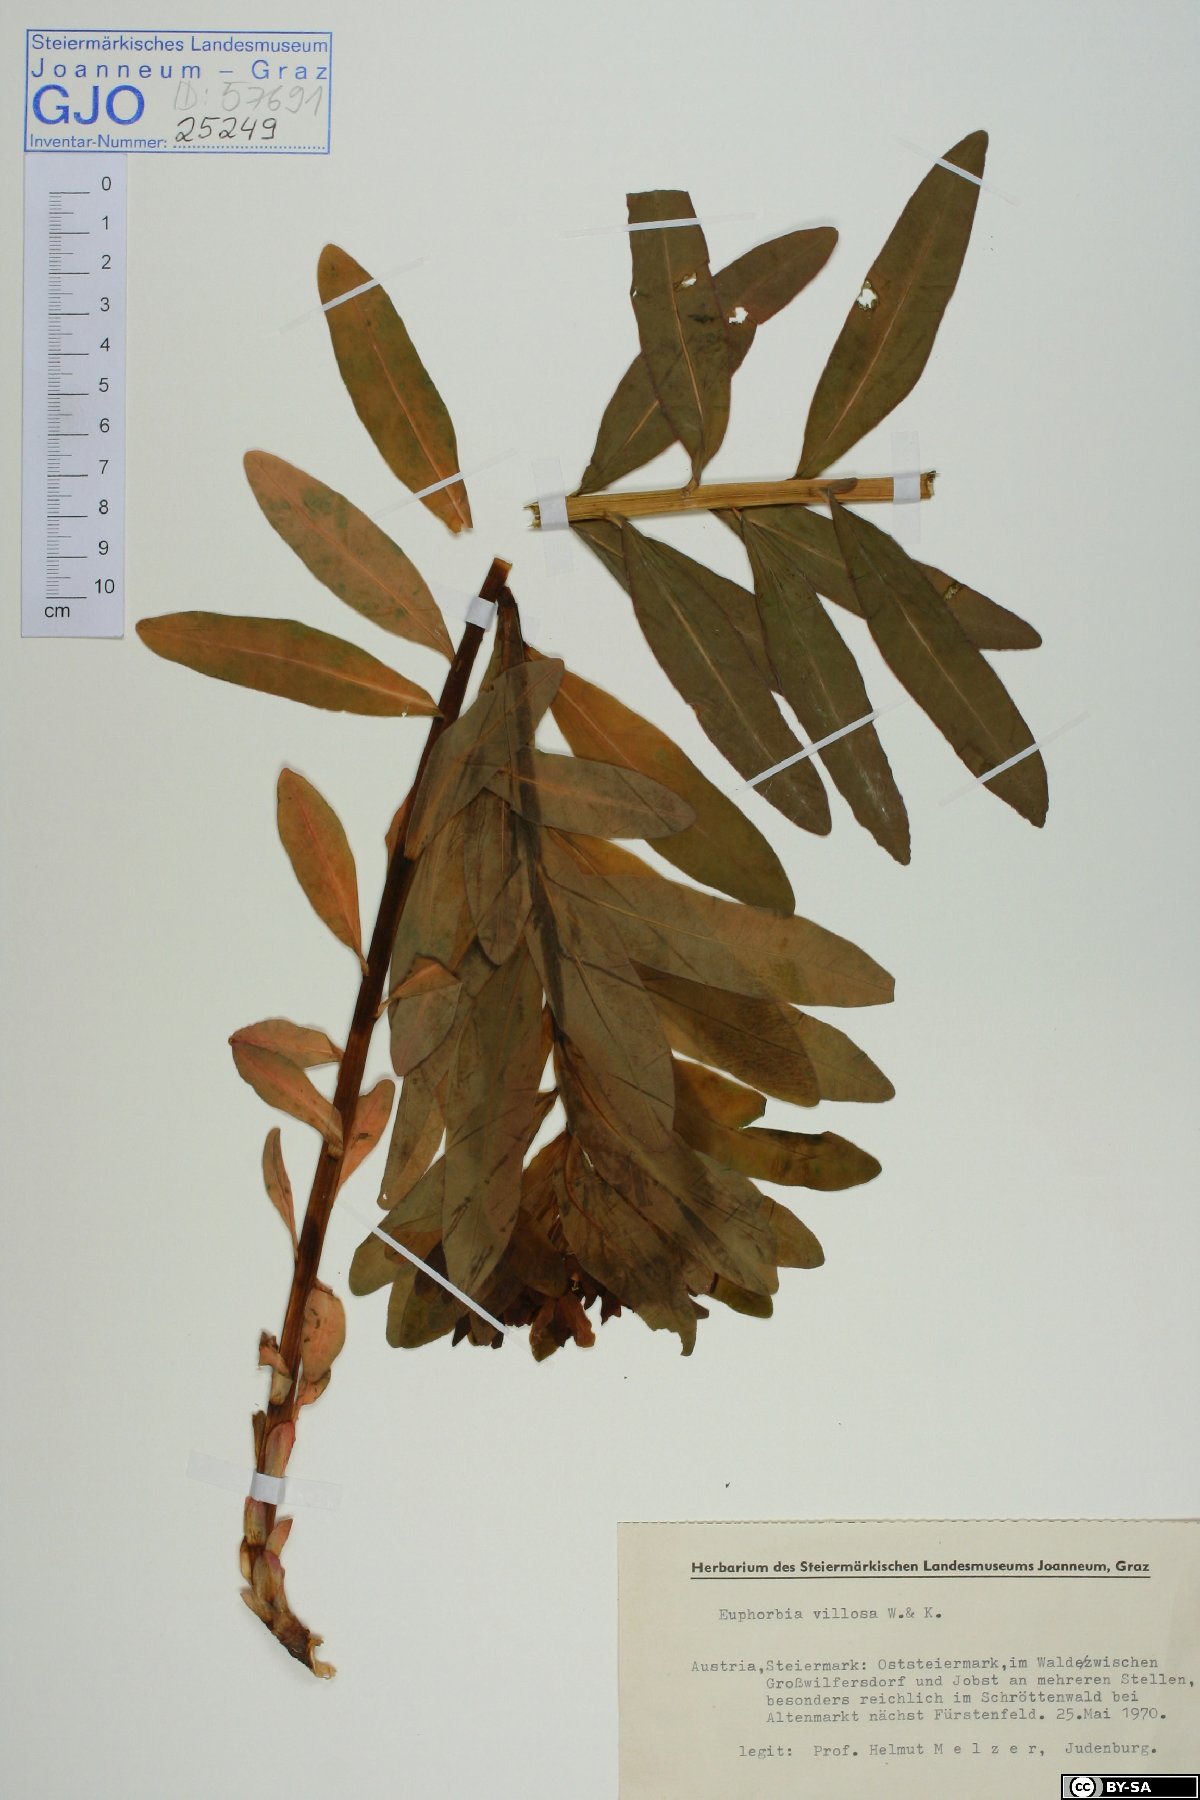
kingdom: Plantae
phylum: Tracheophyta
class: Magnoliopsida
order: Malpighiales
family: Euphorbiaceae
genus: Euphorbia
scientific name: Euphorbia illirica
